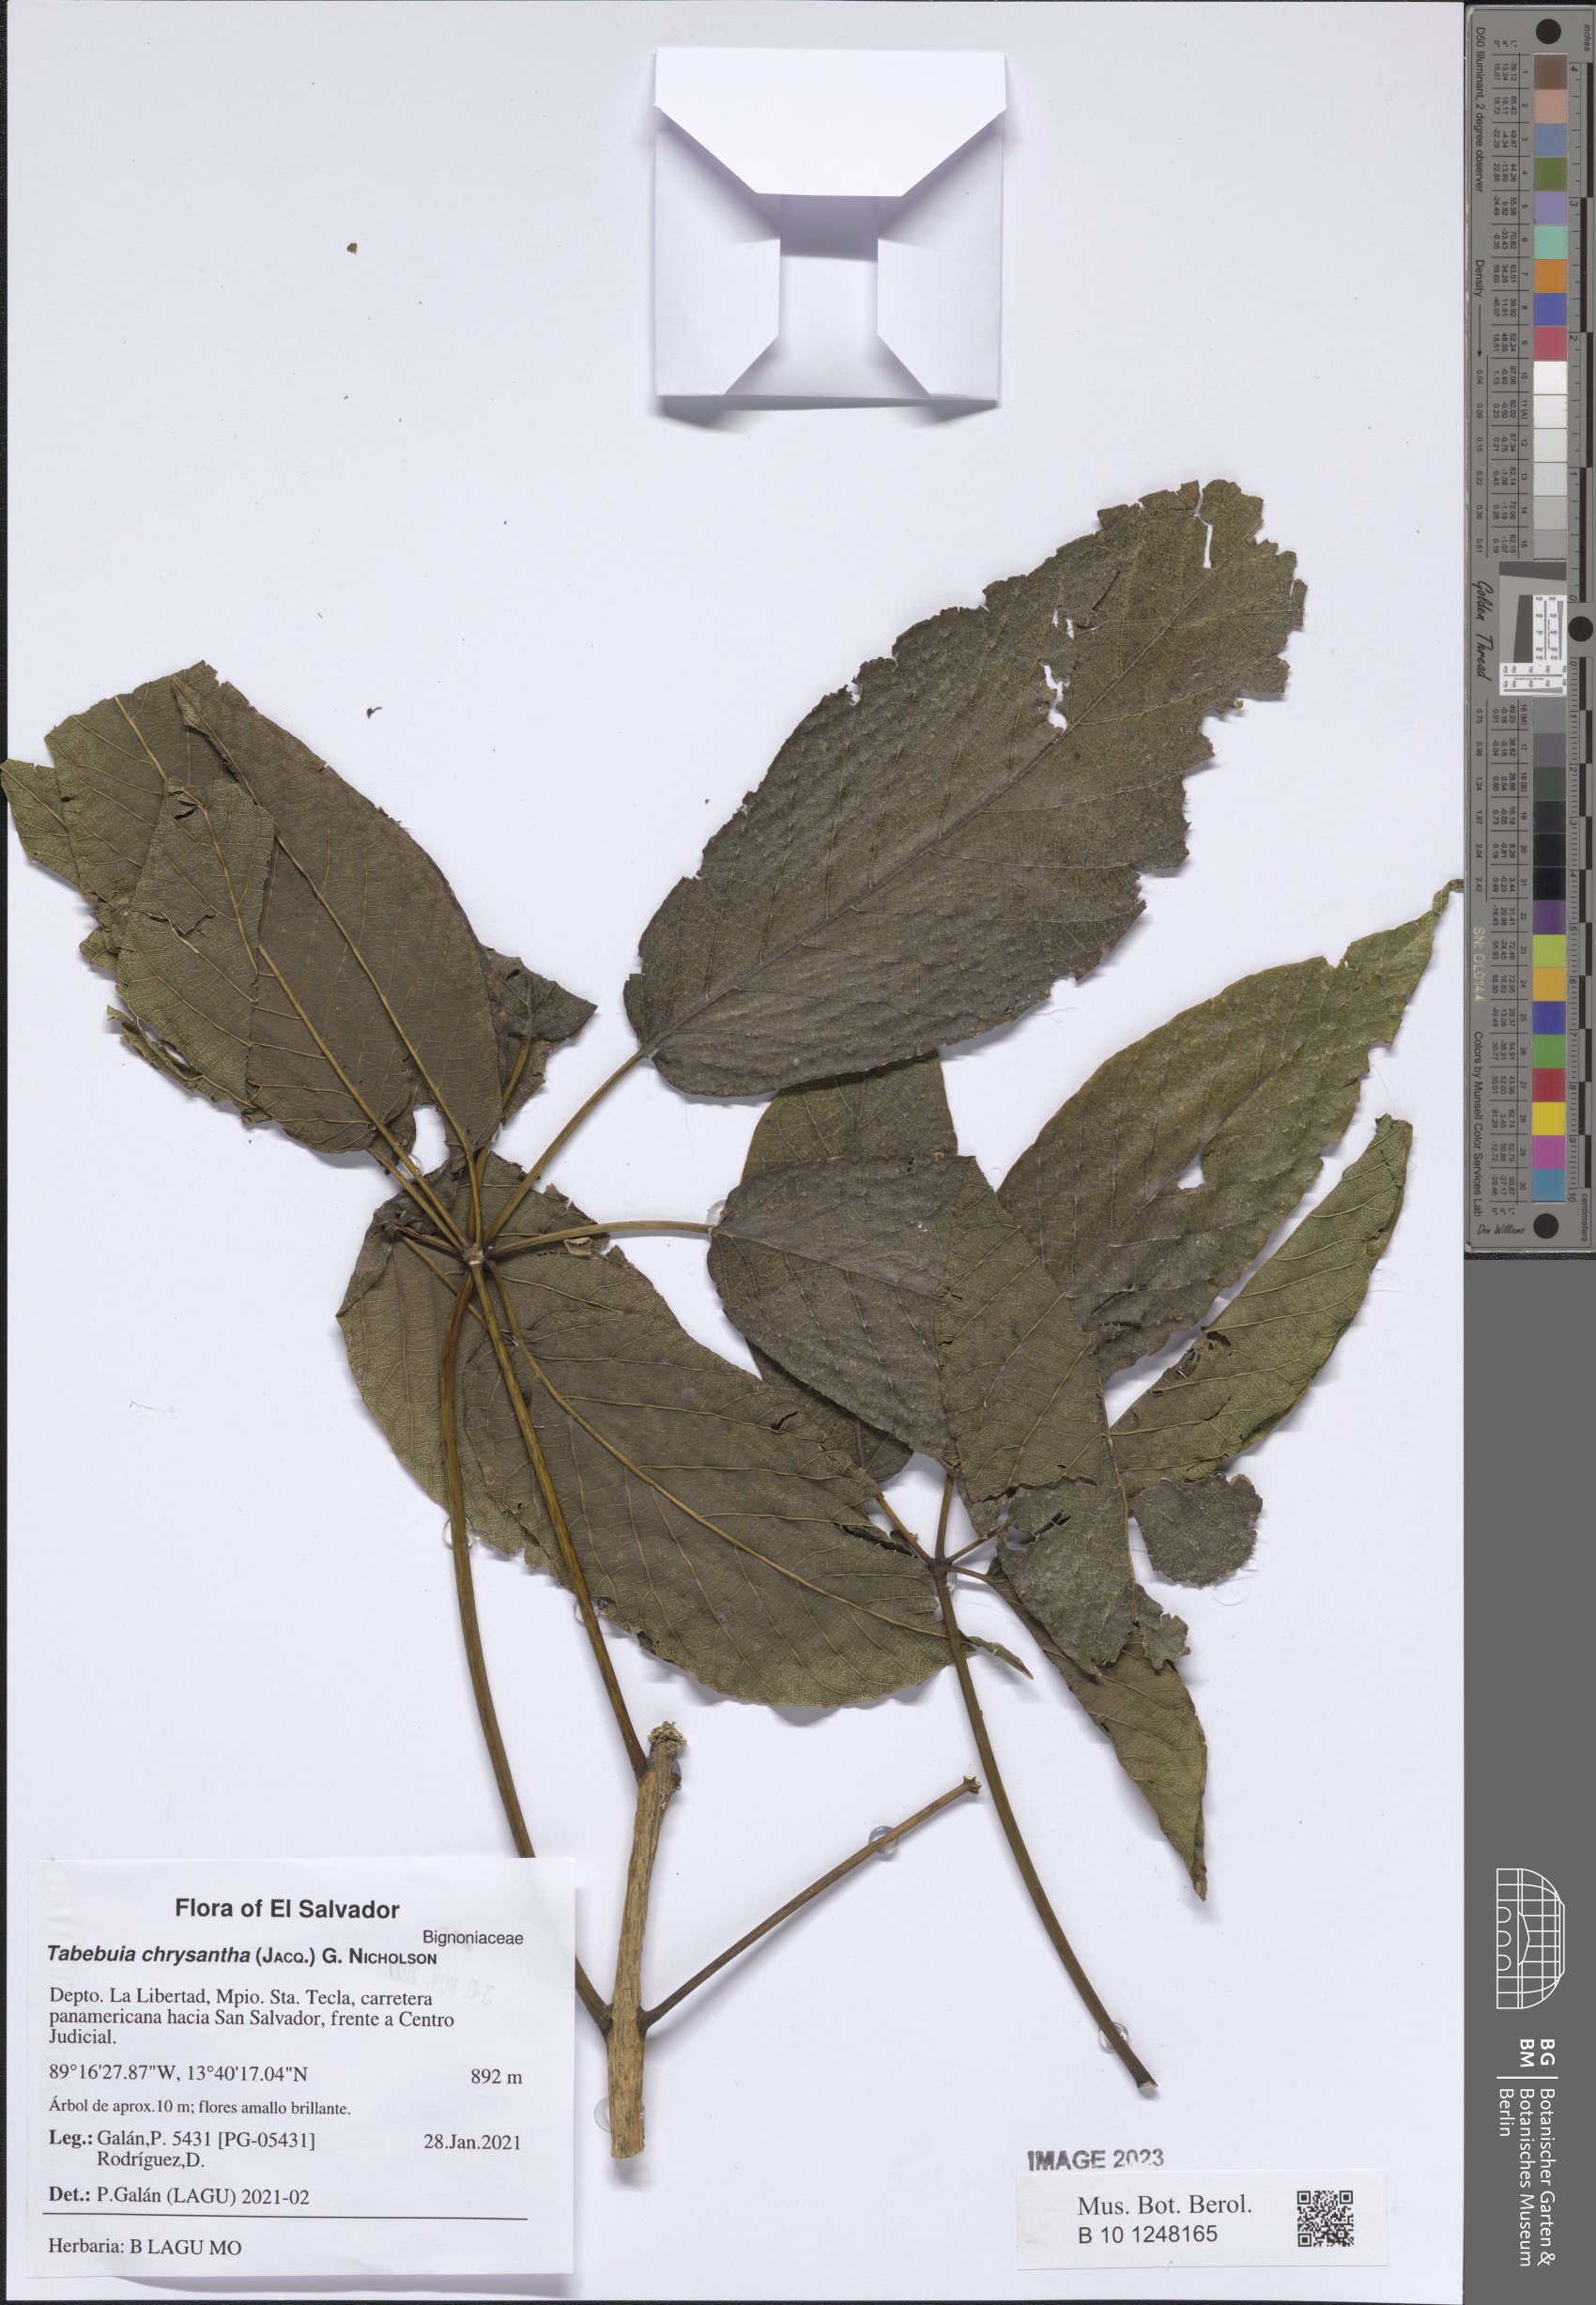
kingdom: Plantae
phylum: Tracheophyta
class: Magnoliopsida
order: Lamiales
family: Bignoniaceae
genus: Handroanthus
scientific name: Handroanthus chrysanthus
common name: Trumpet trees
